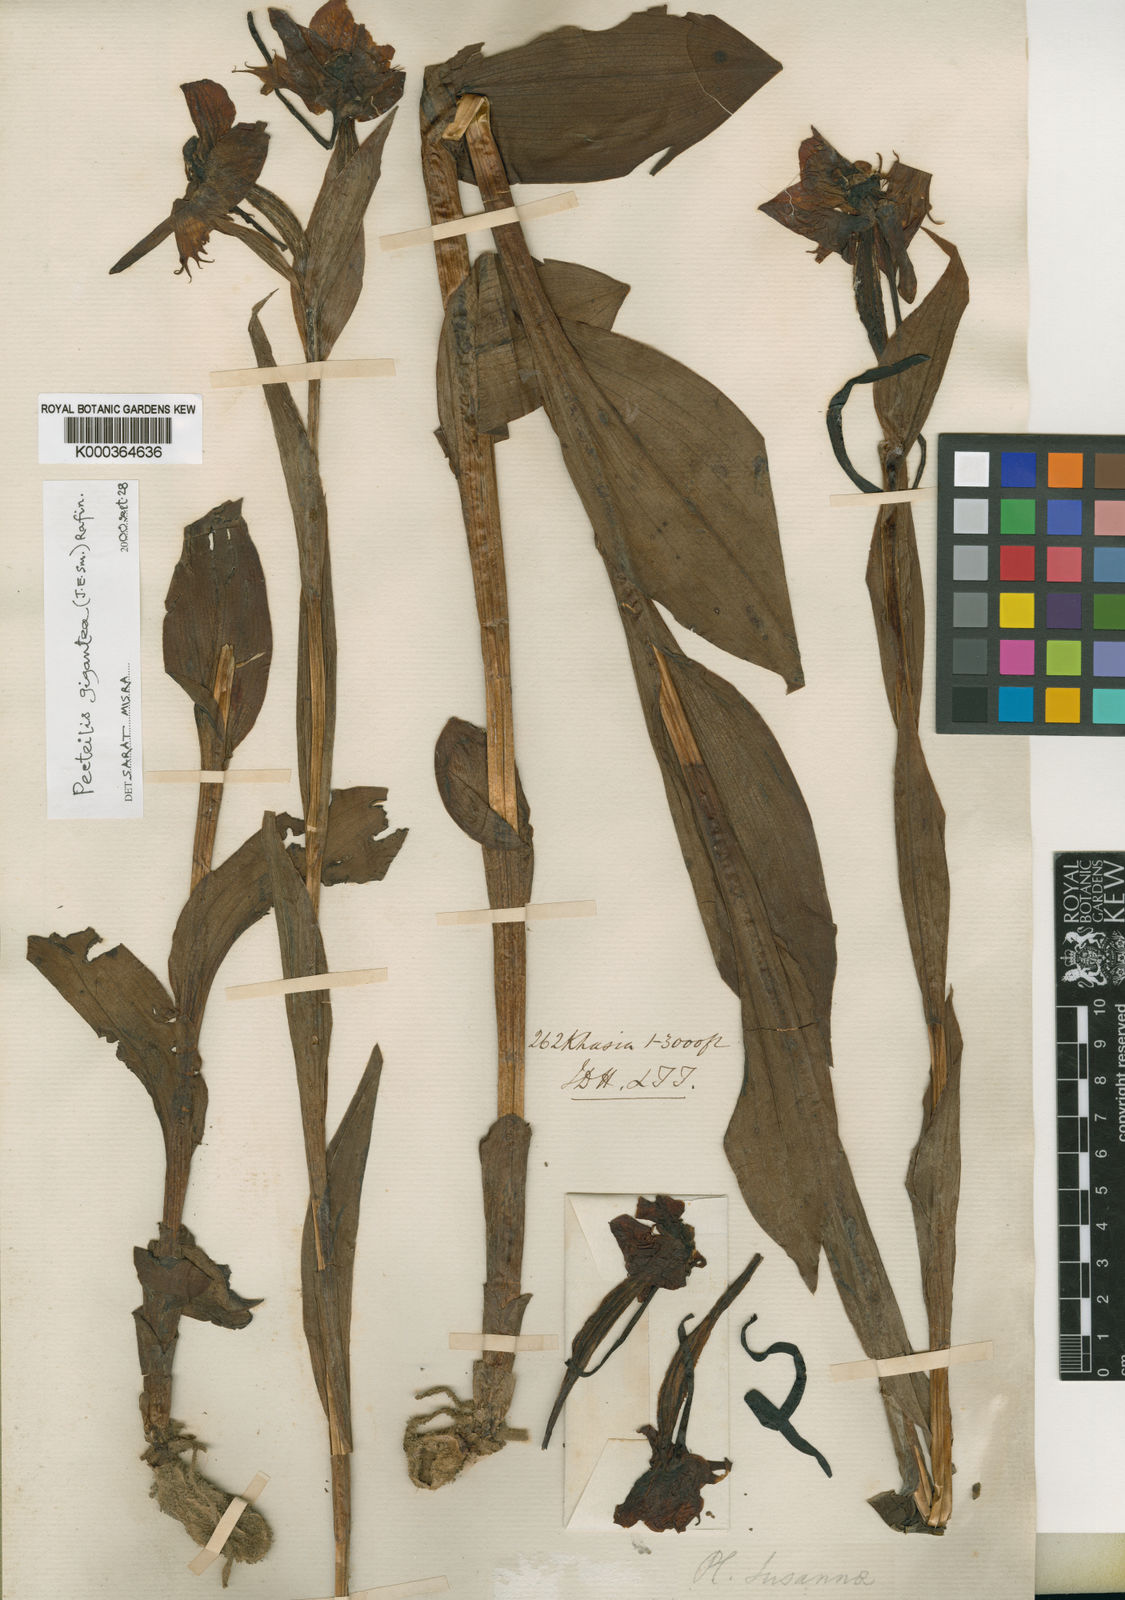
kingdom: Plantae
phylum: Tracheophyta
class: Liliopsida
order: Asparagales
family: Orchidaceae
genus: Pecteilis
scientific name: Pecteilis
